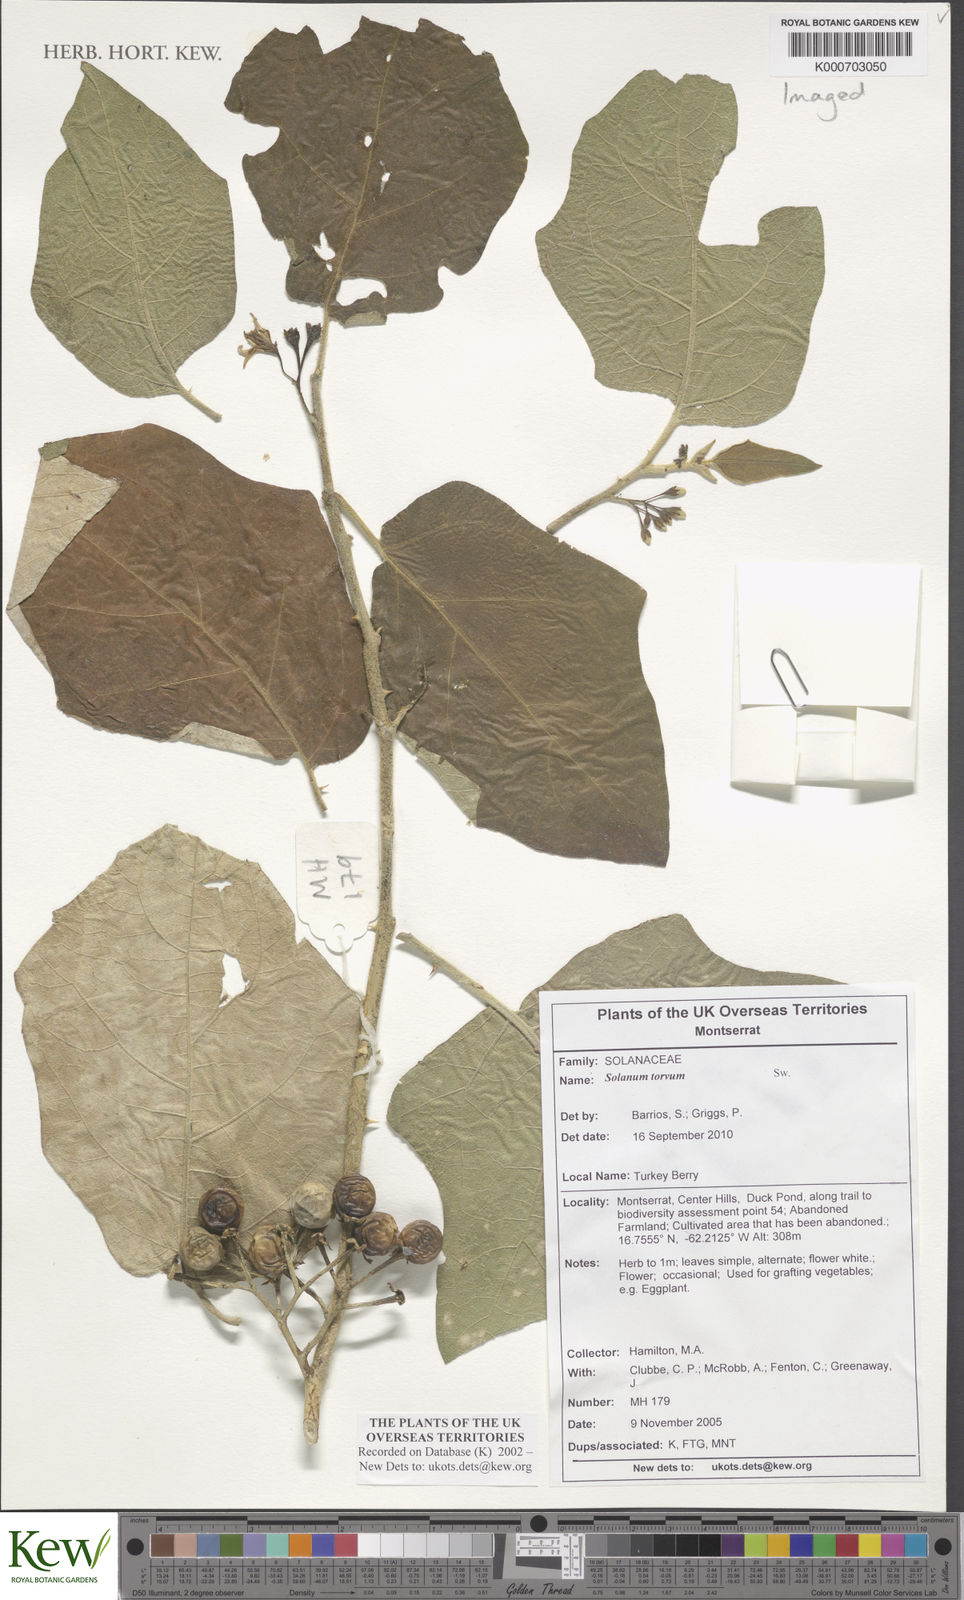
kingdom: Plantae
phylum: Tracheophyta
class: Magnoliopsida
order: Solanales
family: Solanaceae
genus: Solanum
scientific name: Solanum torvum
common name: Turkey berry
